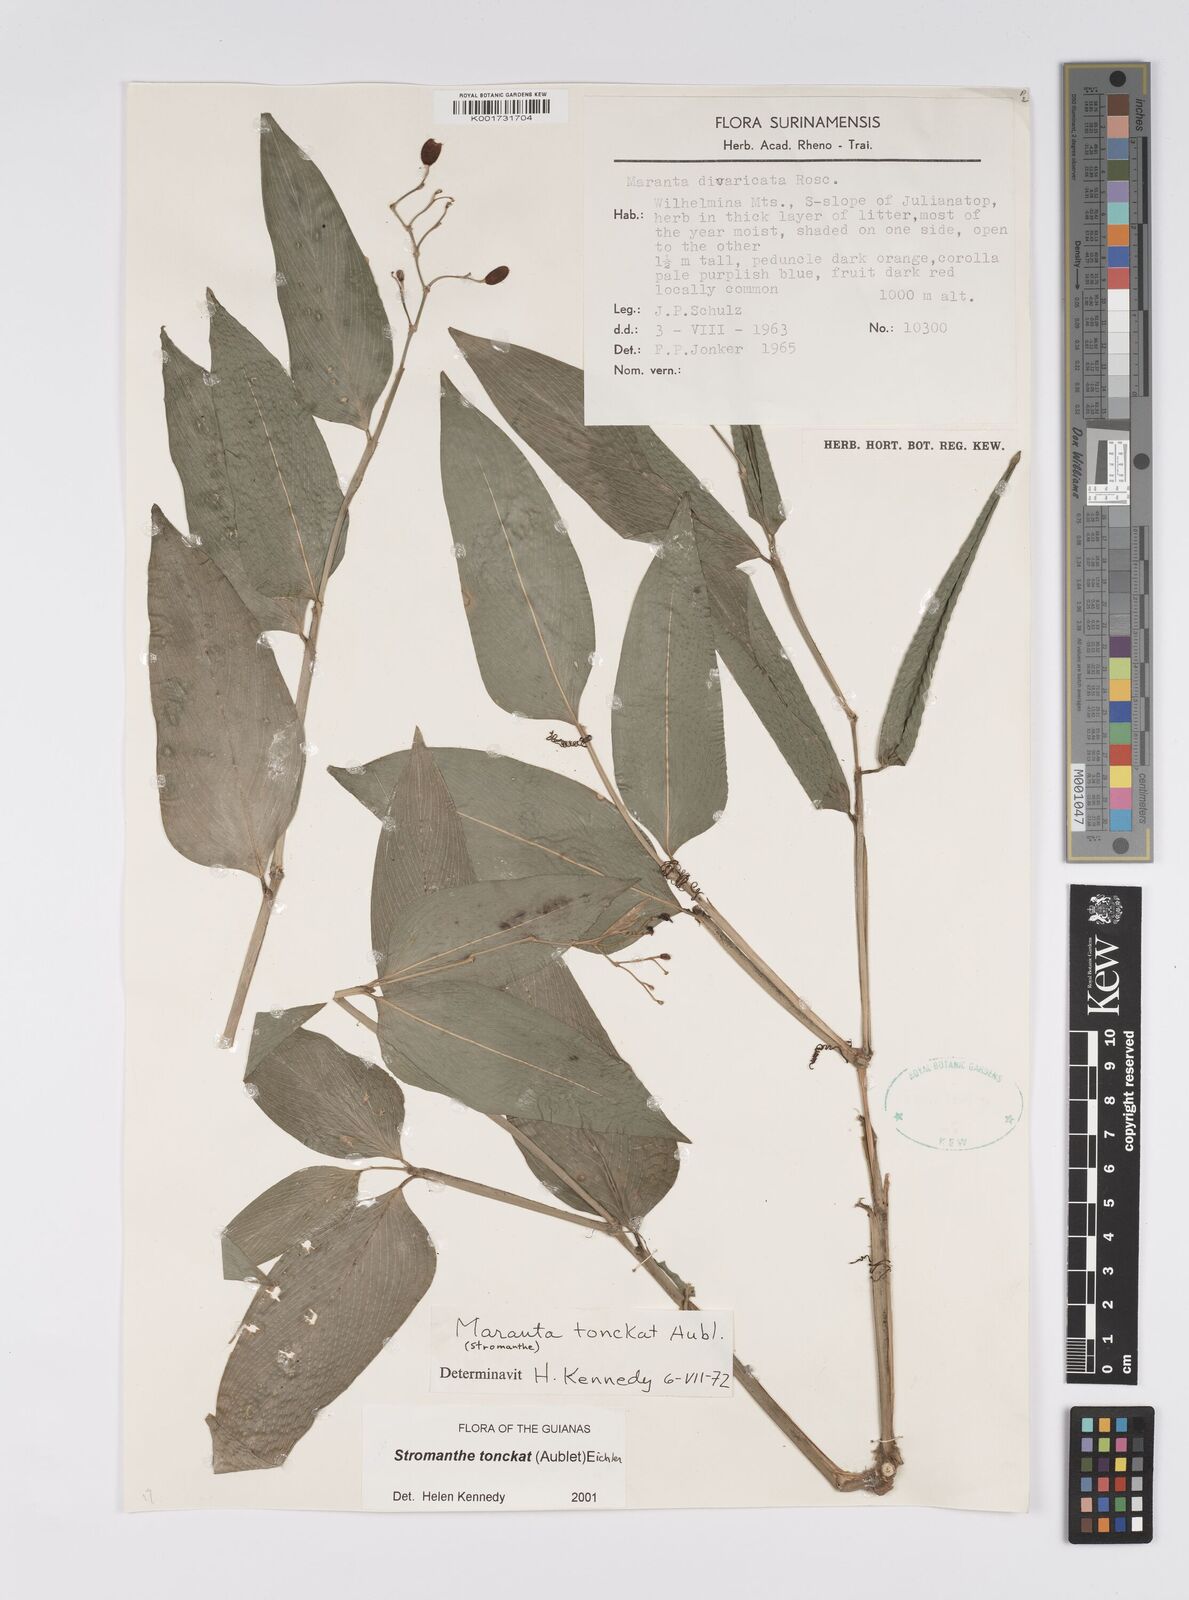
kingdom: Plantae
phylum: Tracheophyta
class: Liliopsida
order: Zingiberales
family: Marantaceae
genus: Stromanthe
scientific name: Stromanthe tonckat
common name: Stromanthe
